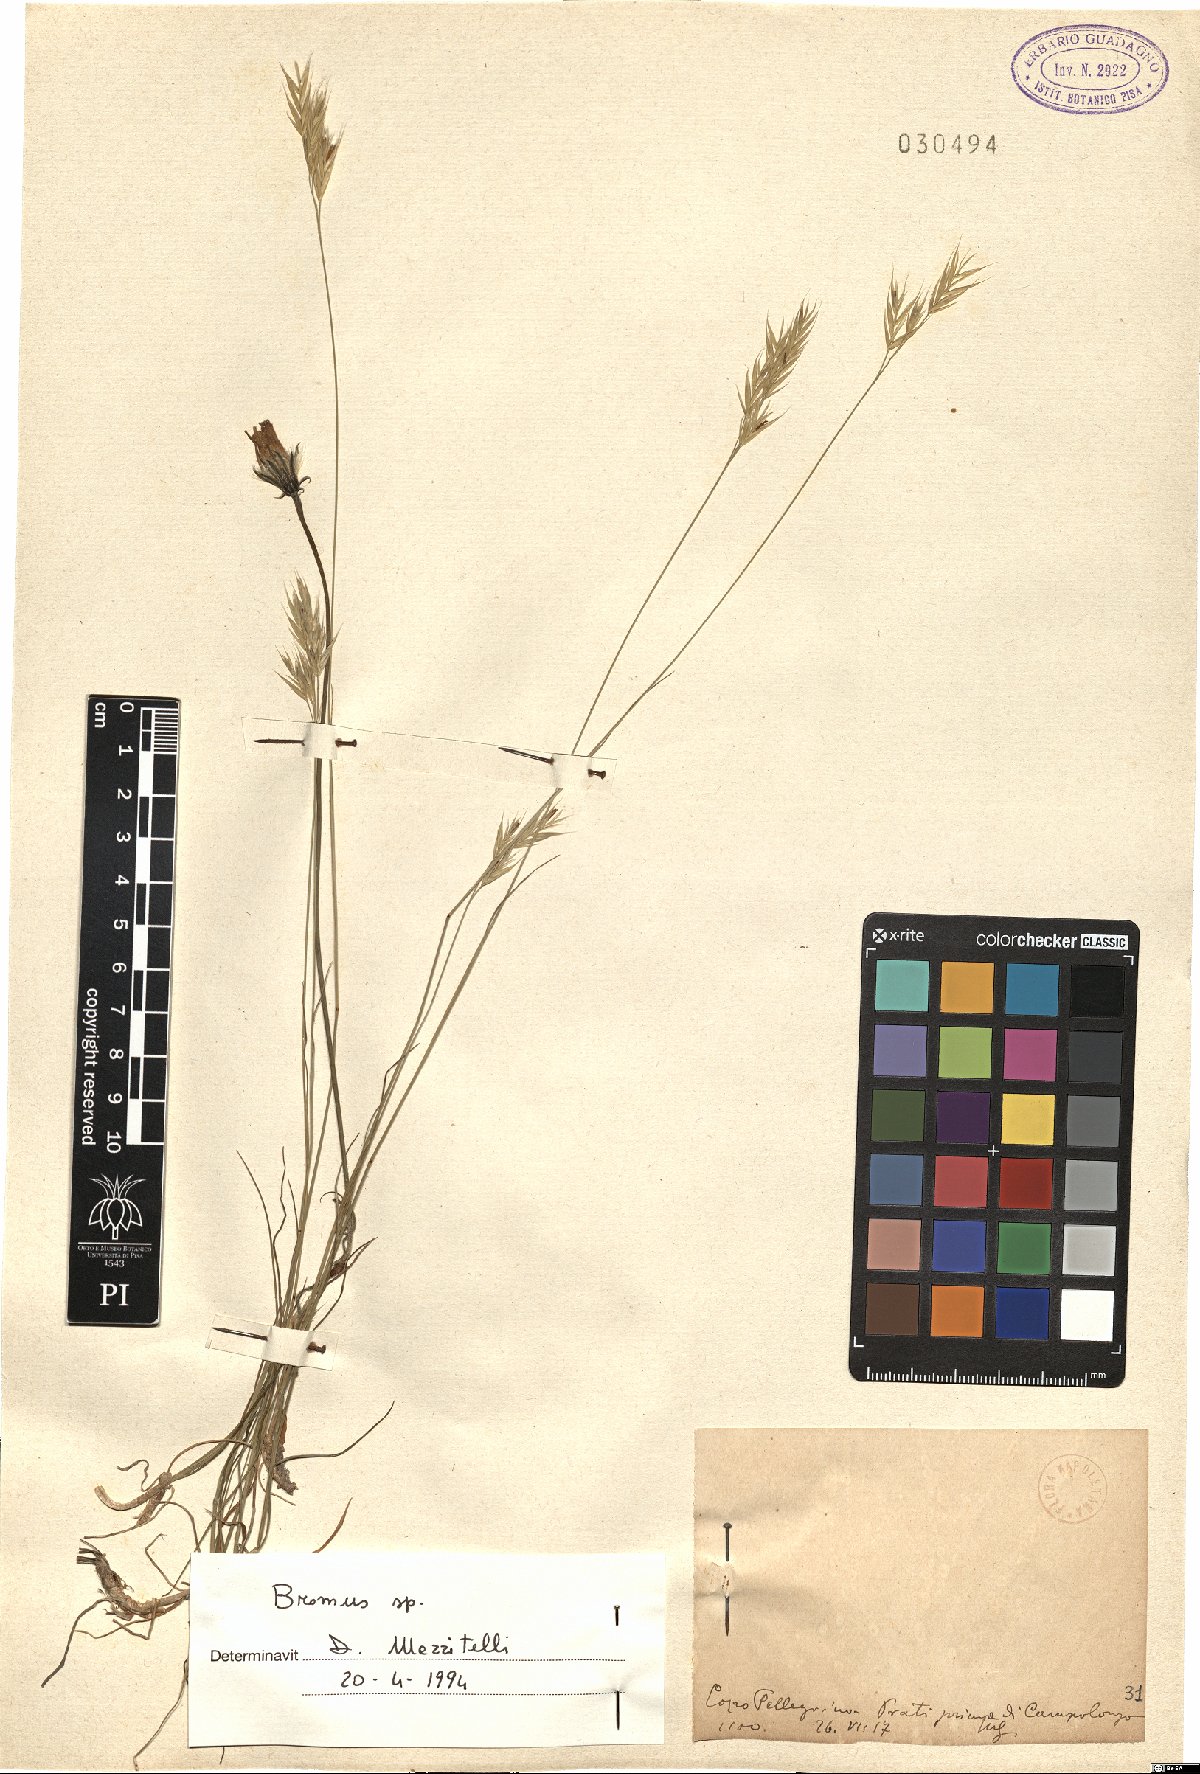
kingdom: Plantae
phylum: Tracheophyta
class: Liliopsida
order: Poales
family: Poaceae
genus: Bromus
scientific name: Bromus
